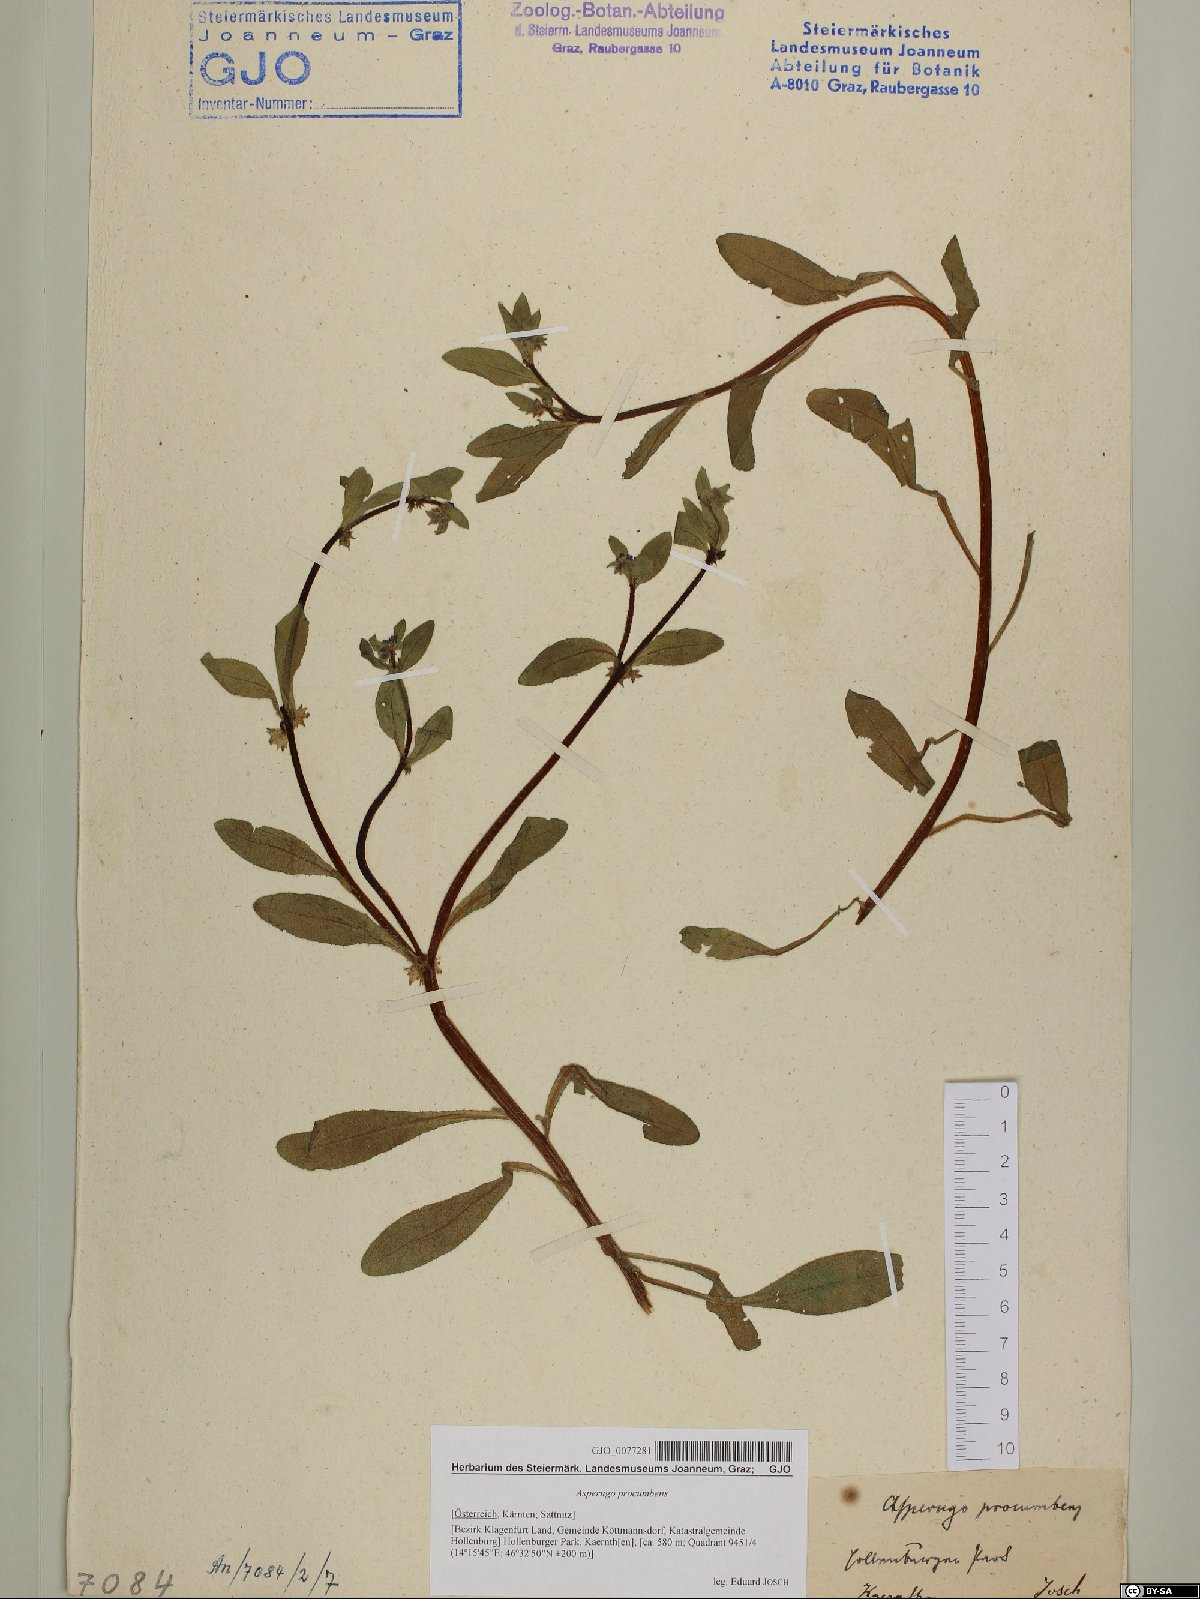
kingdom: Plantae
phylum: Tracheophyta
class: Magnoliopsida
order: Boraginales
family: Boraginaceae
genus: Asperugo
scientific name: Asperugo procumbens
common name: Madwort
